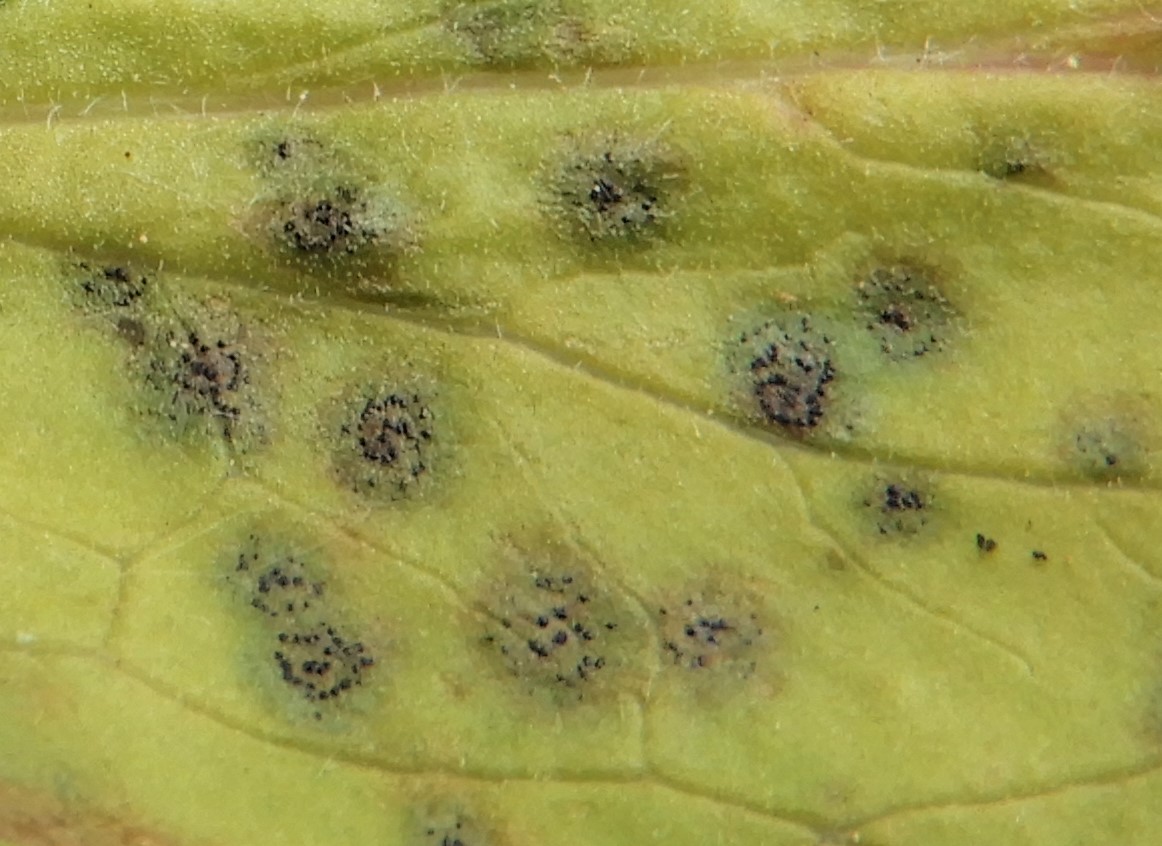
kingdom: Fungi
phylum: Ascomycota
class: Dothideomycetes
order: Venturiales
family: Venturiaceae
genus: Venturia
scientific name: Venturia maculiformis
